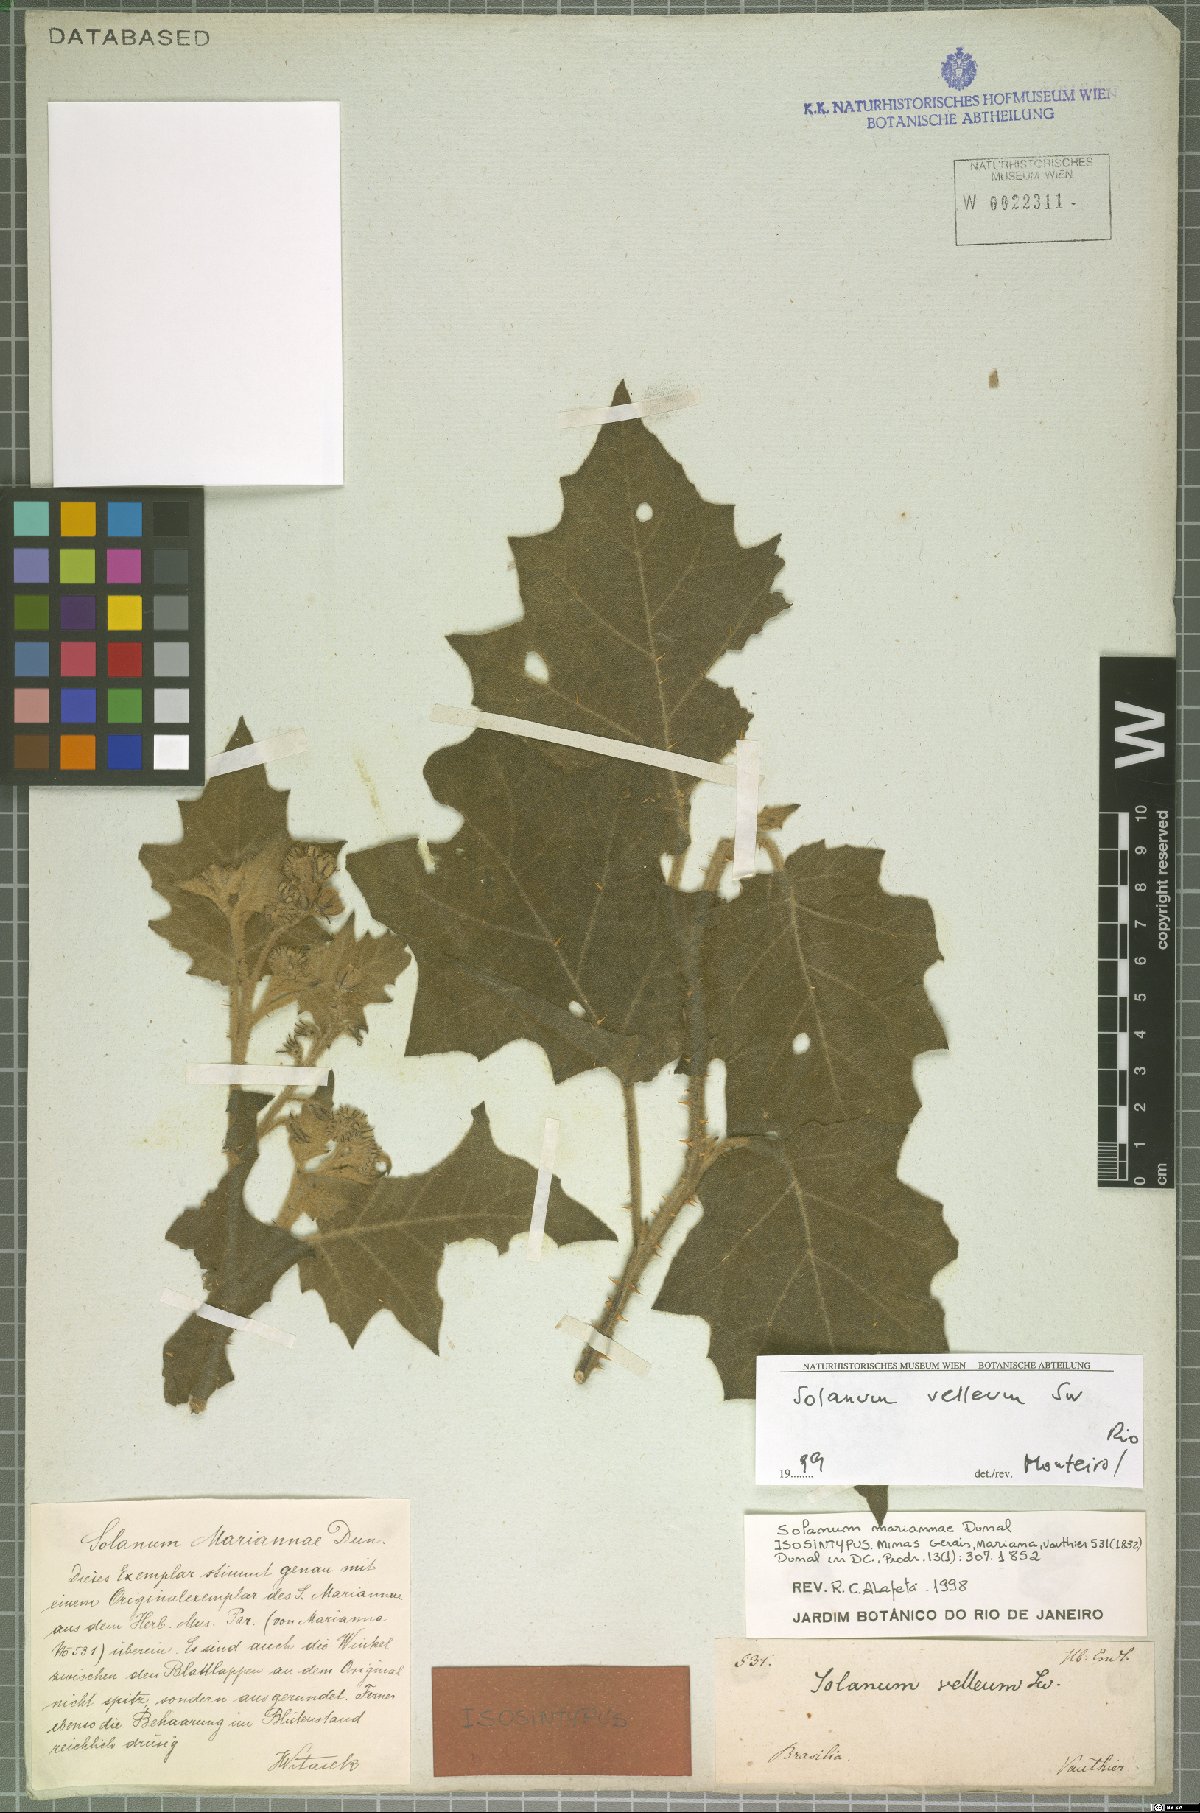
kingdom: Plantae
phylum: Tracheophyta
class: Magnoliopsida
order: Solanales
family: Solanaceae
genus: Solanum
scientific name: Solanum velleum
